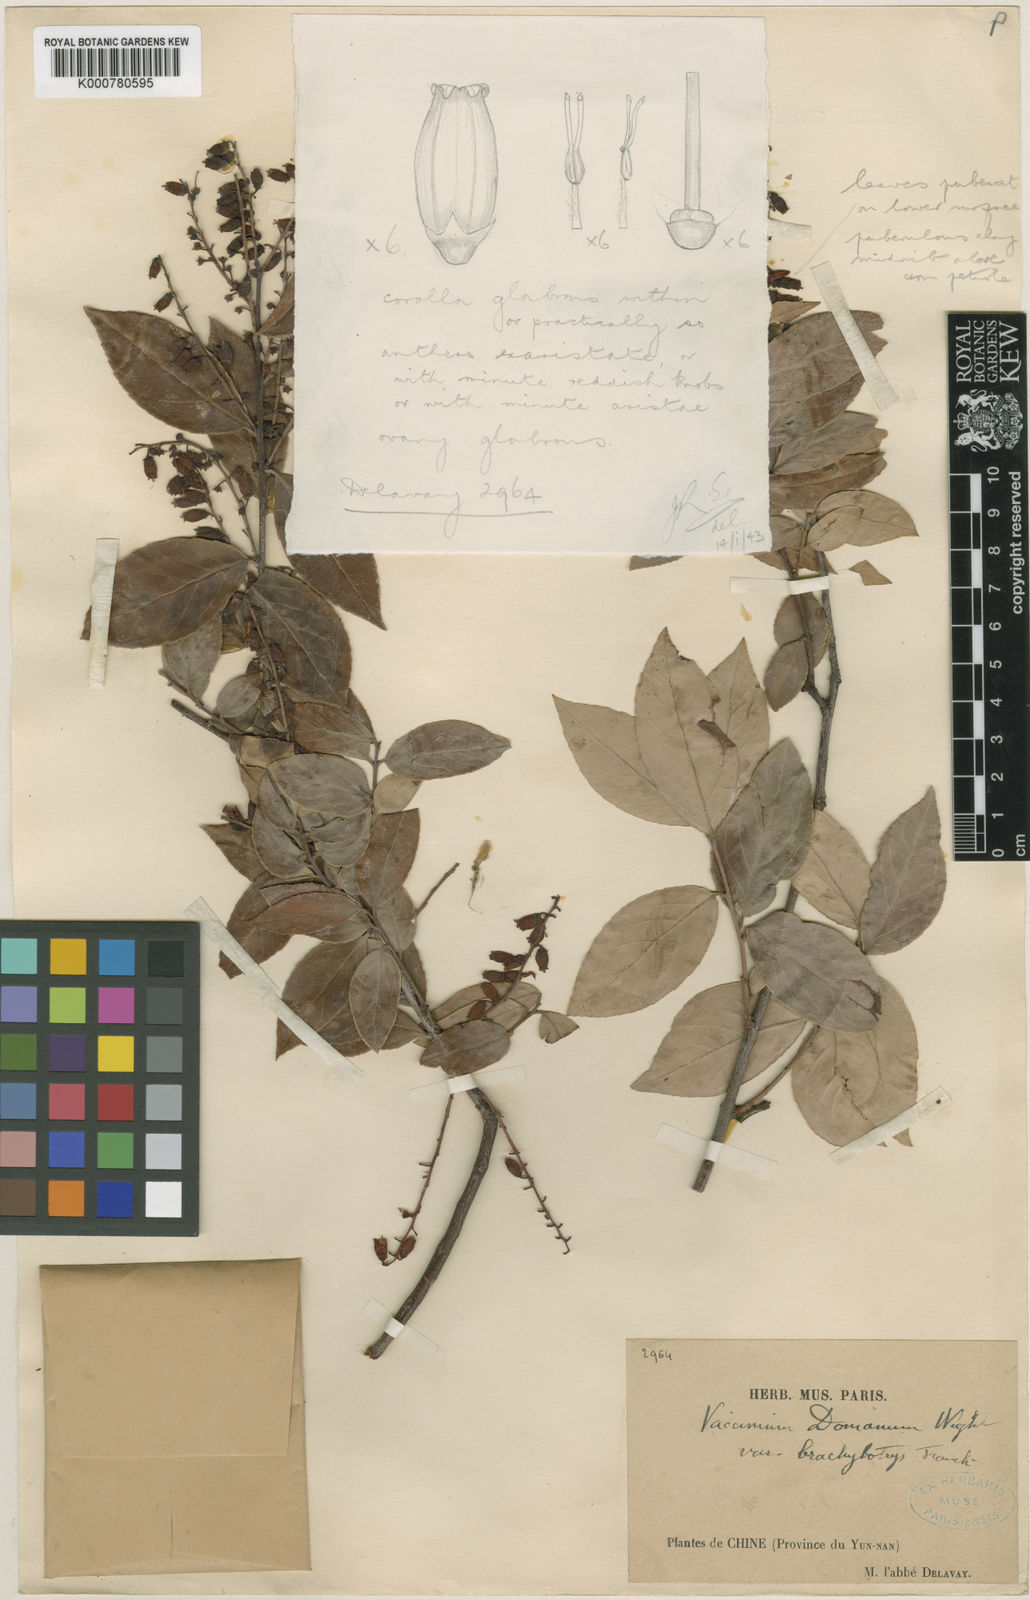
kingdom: Plantae
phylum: Tracheophyta
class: Magnoliopsida
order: Ericales
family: Ericaceae
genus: Vaccinium
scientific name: Vaccinium sprengelii
